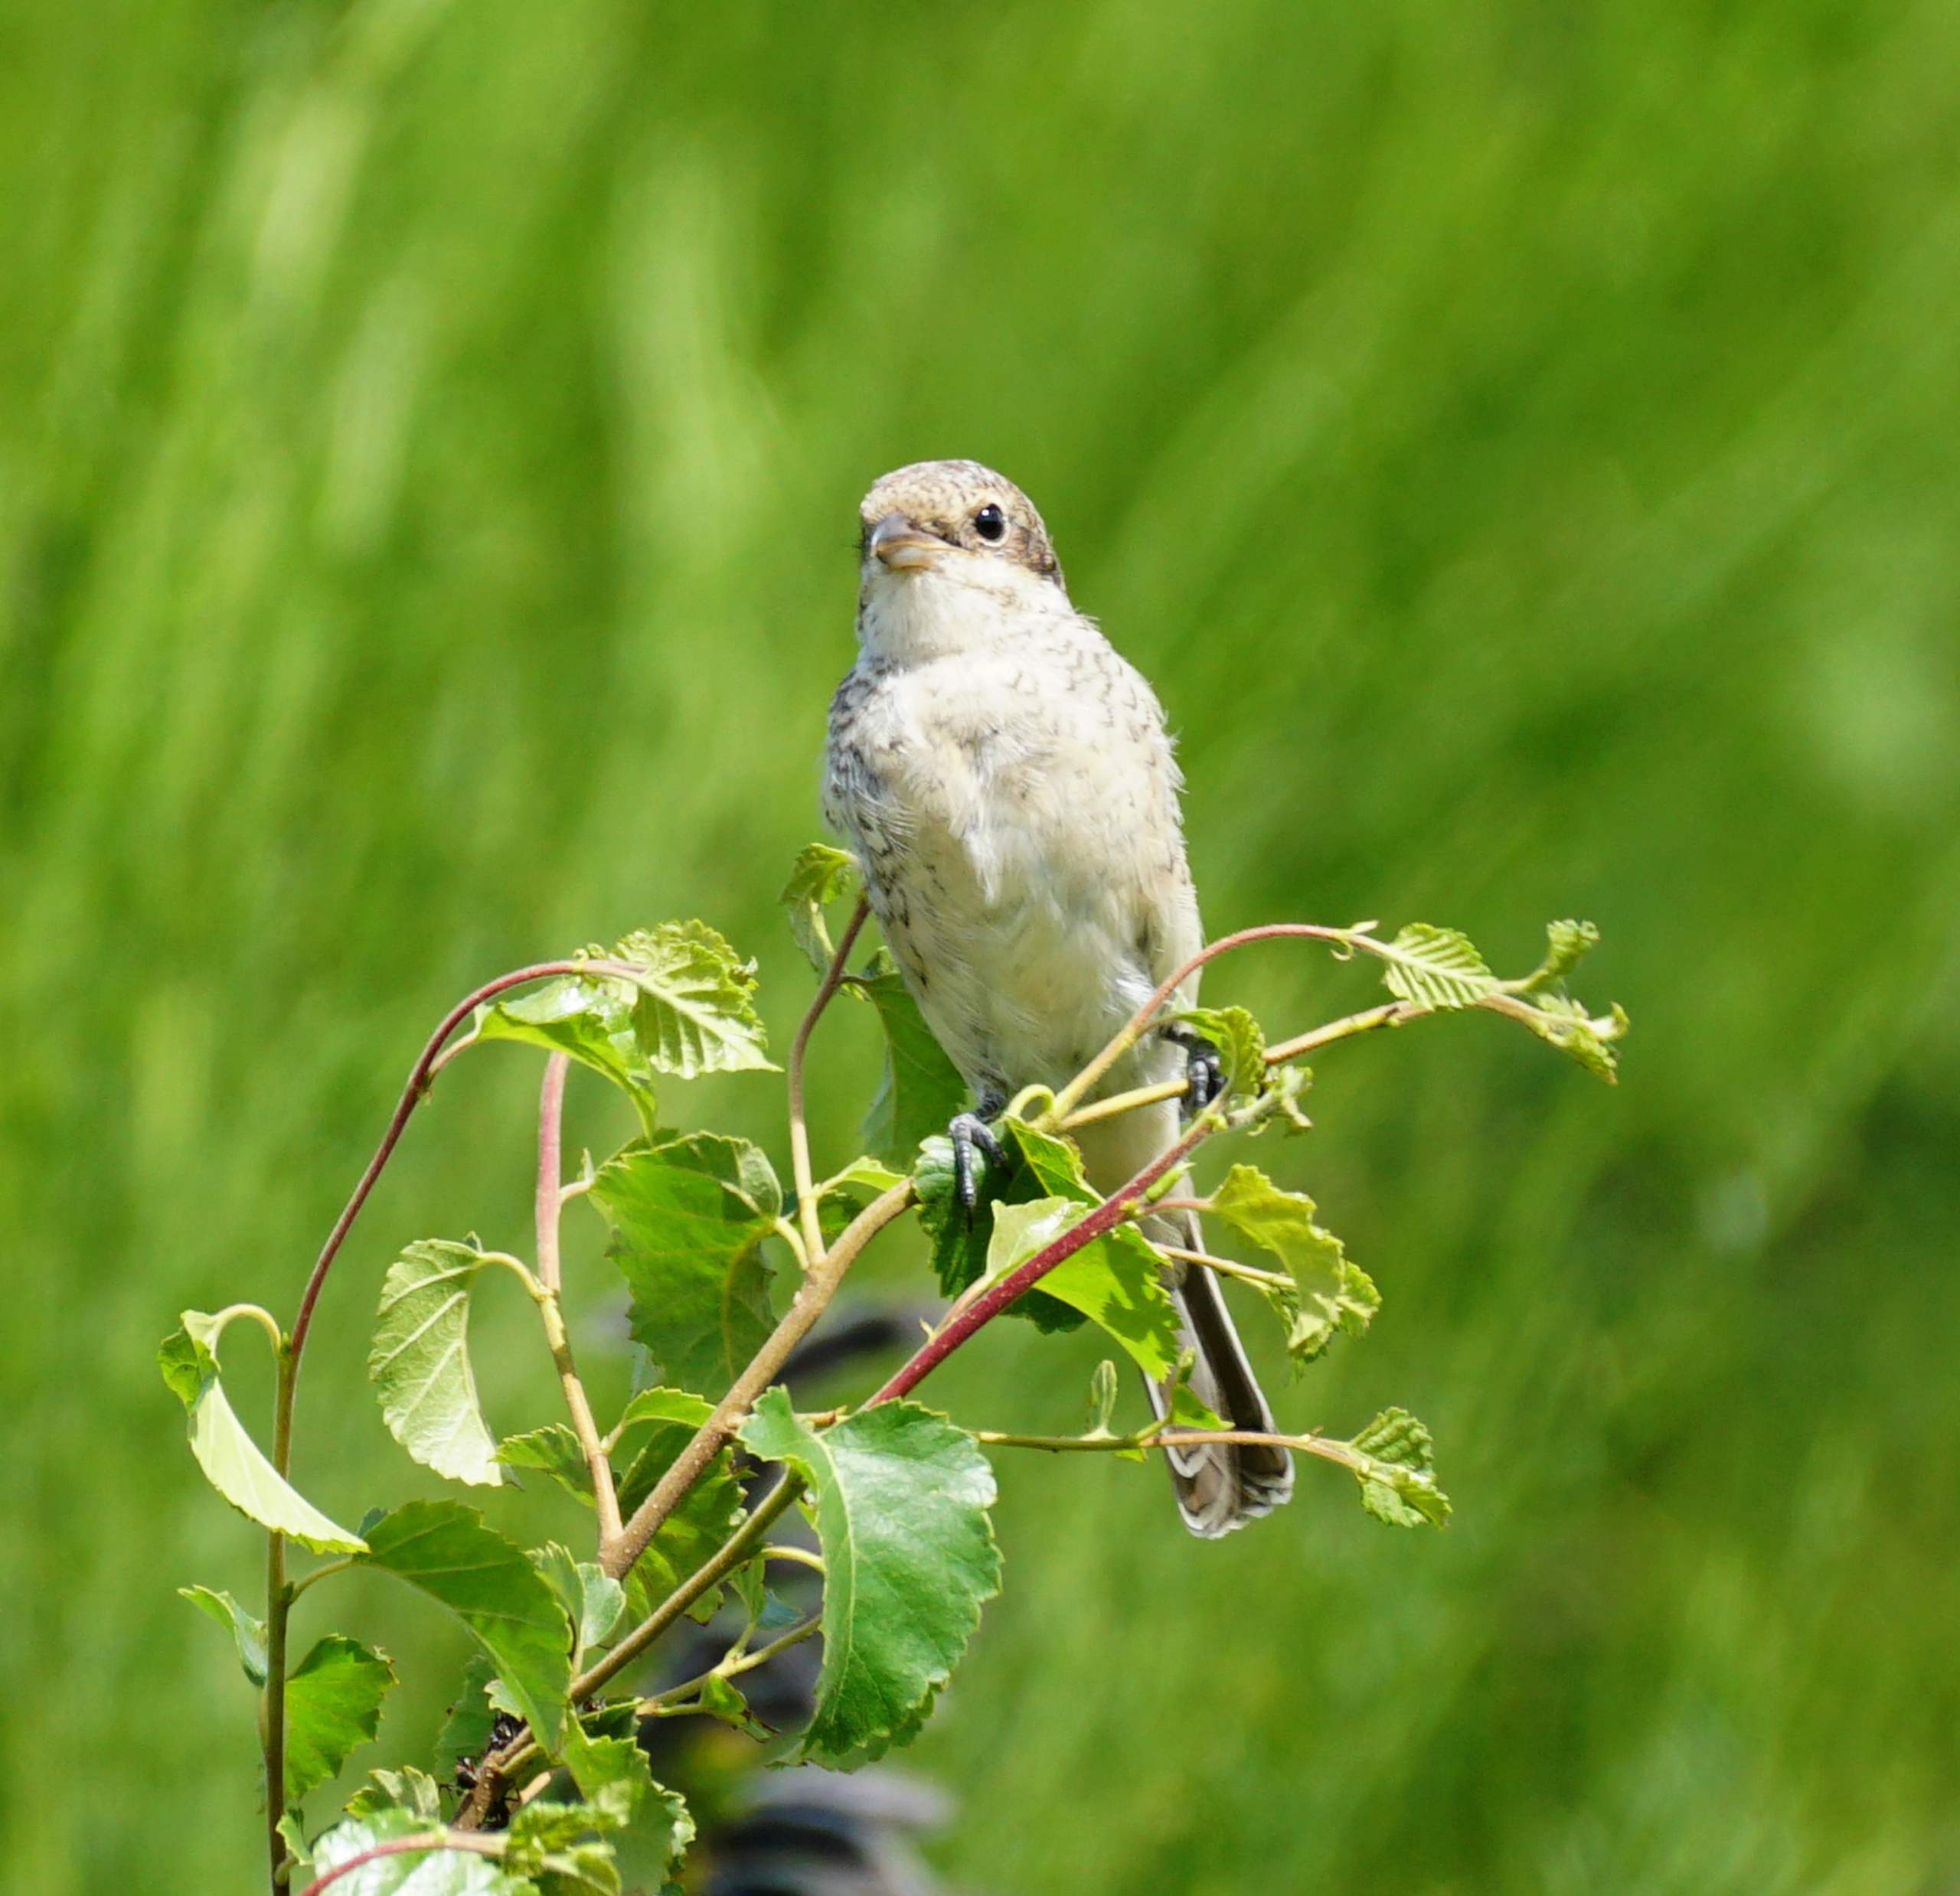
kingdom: Animalia
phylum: Chordata
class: Aves
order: Passeriformes
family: Laniidae
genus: Lanius
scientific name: Lanius collurio
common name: Rødrygget tornskade
